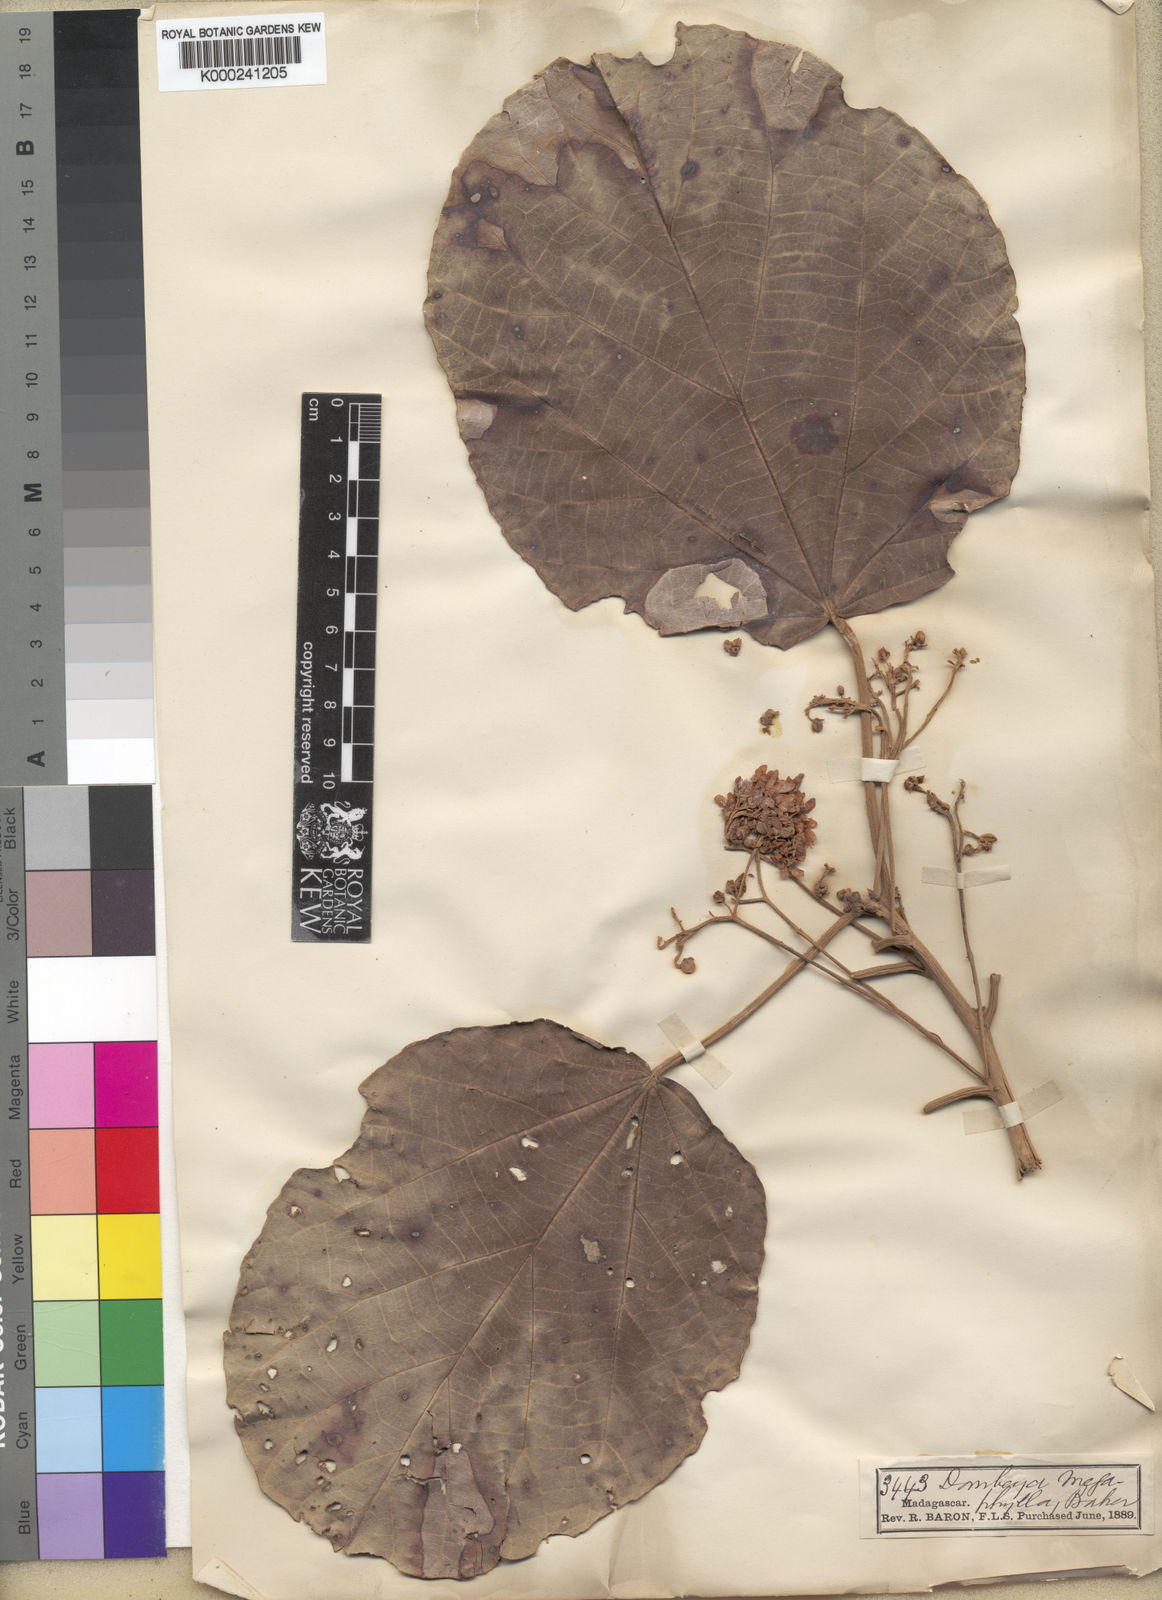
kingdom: Plantae
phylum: Tracheophyta
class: Magnoliopsida
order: Malvales
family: Malvaceae
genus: Dombeya
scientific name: Dombeya lucida
